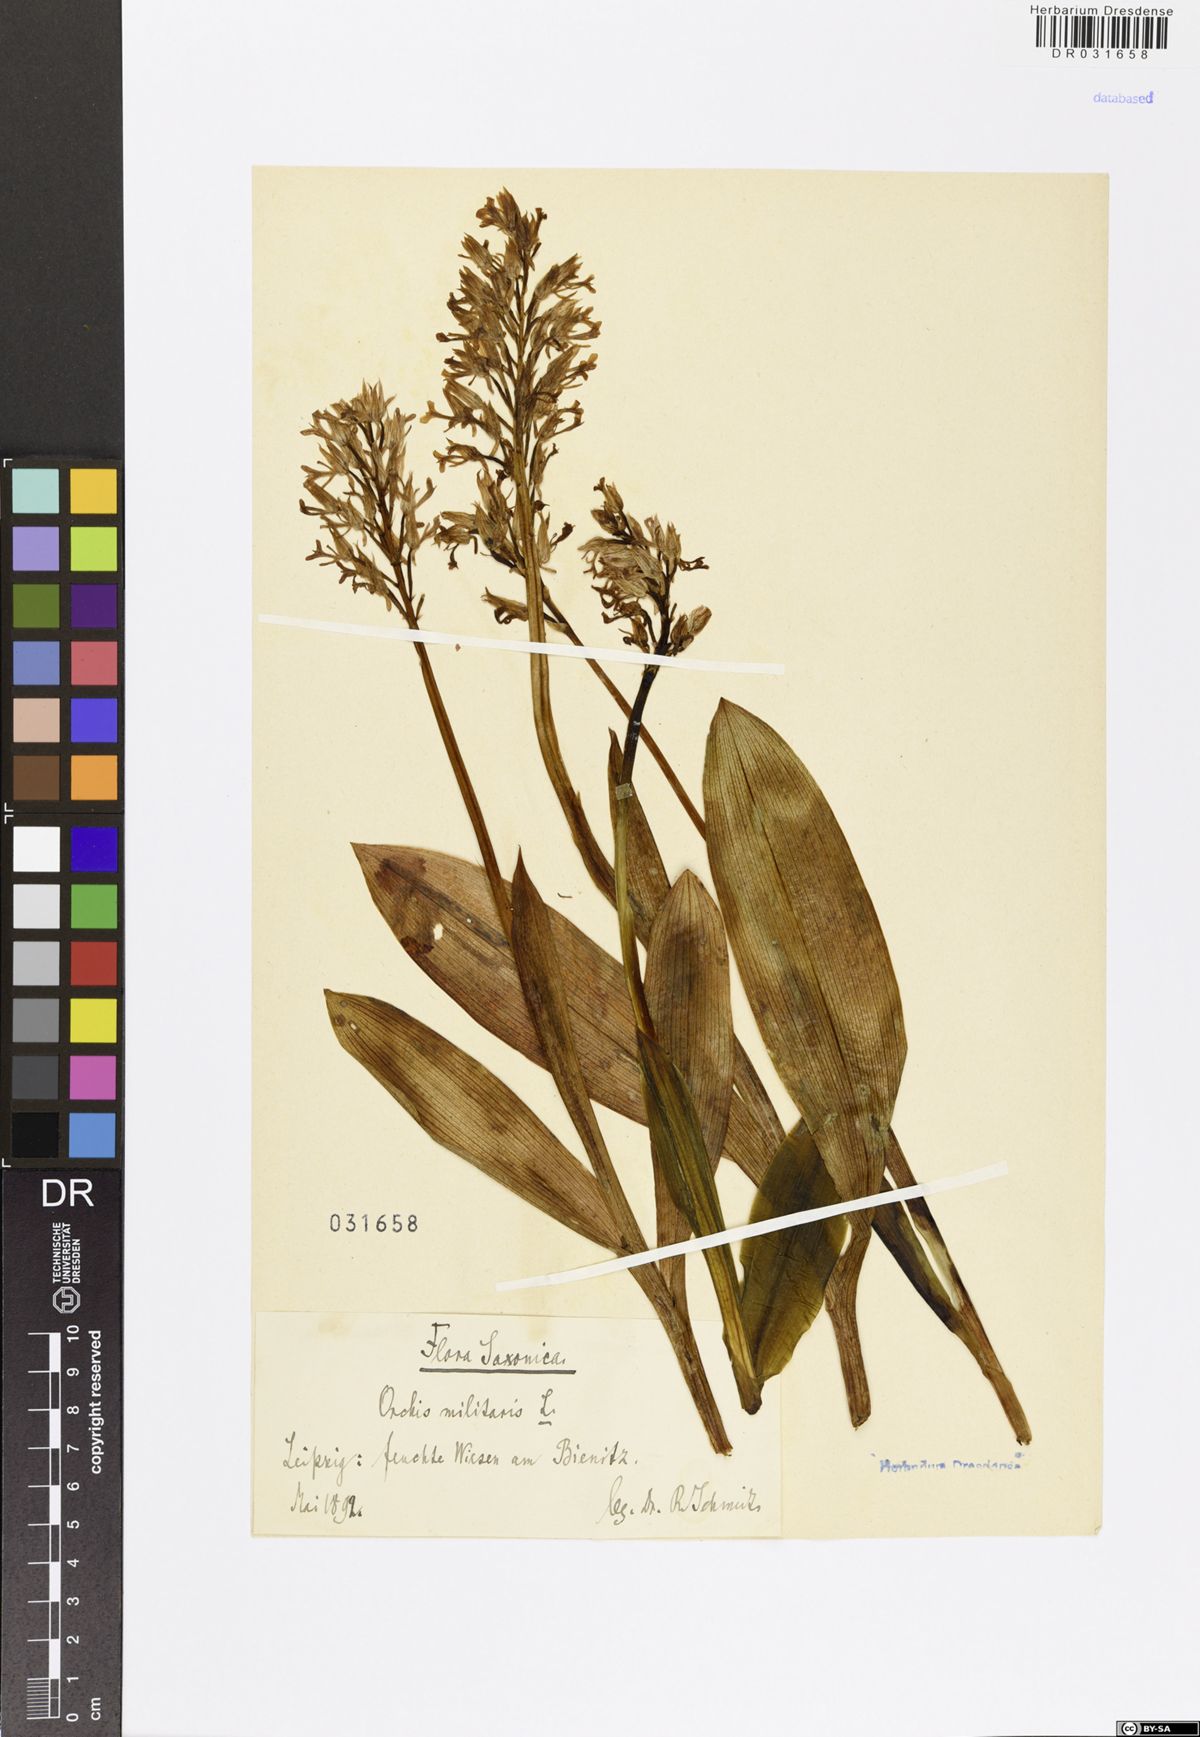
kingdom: Plantae
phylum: Tracheophyta
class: Liliopsida
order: Asparagales
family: Orchidaceae
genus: Orchis
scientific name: Orchis militaris
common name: Military orchid
